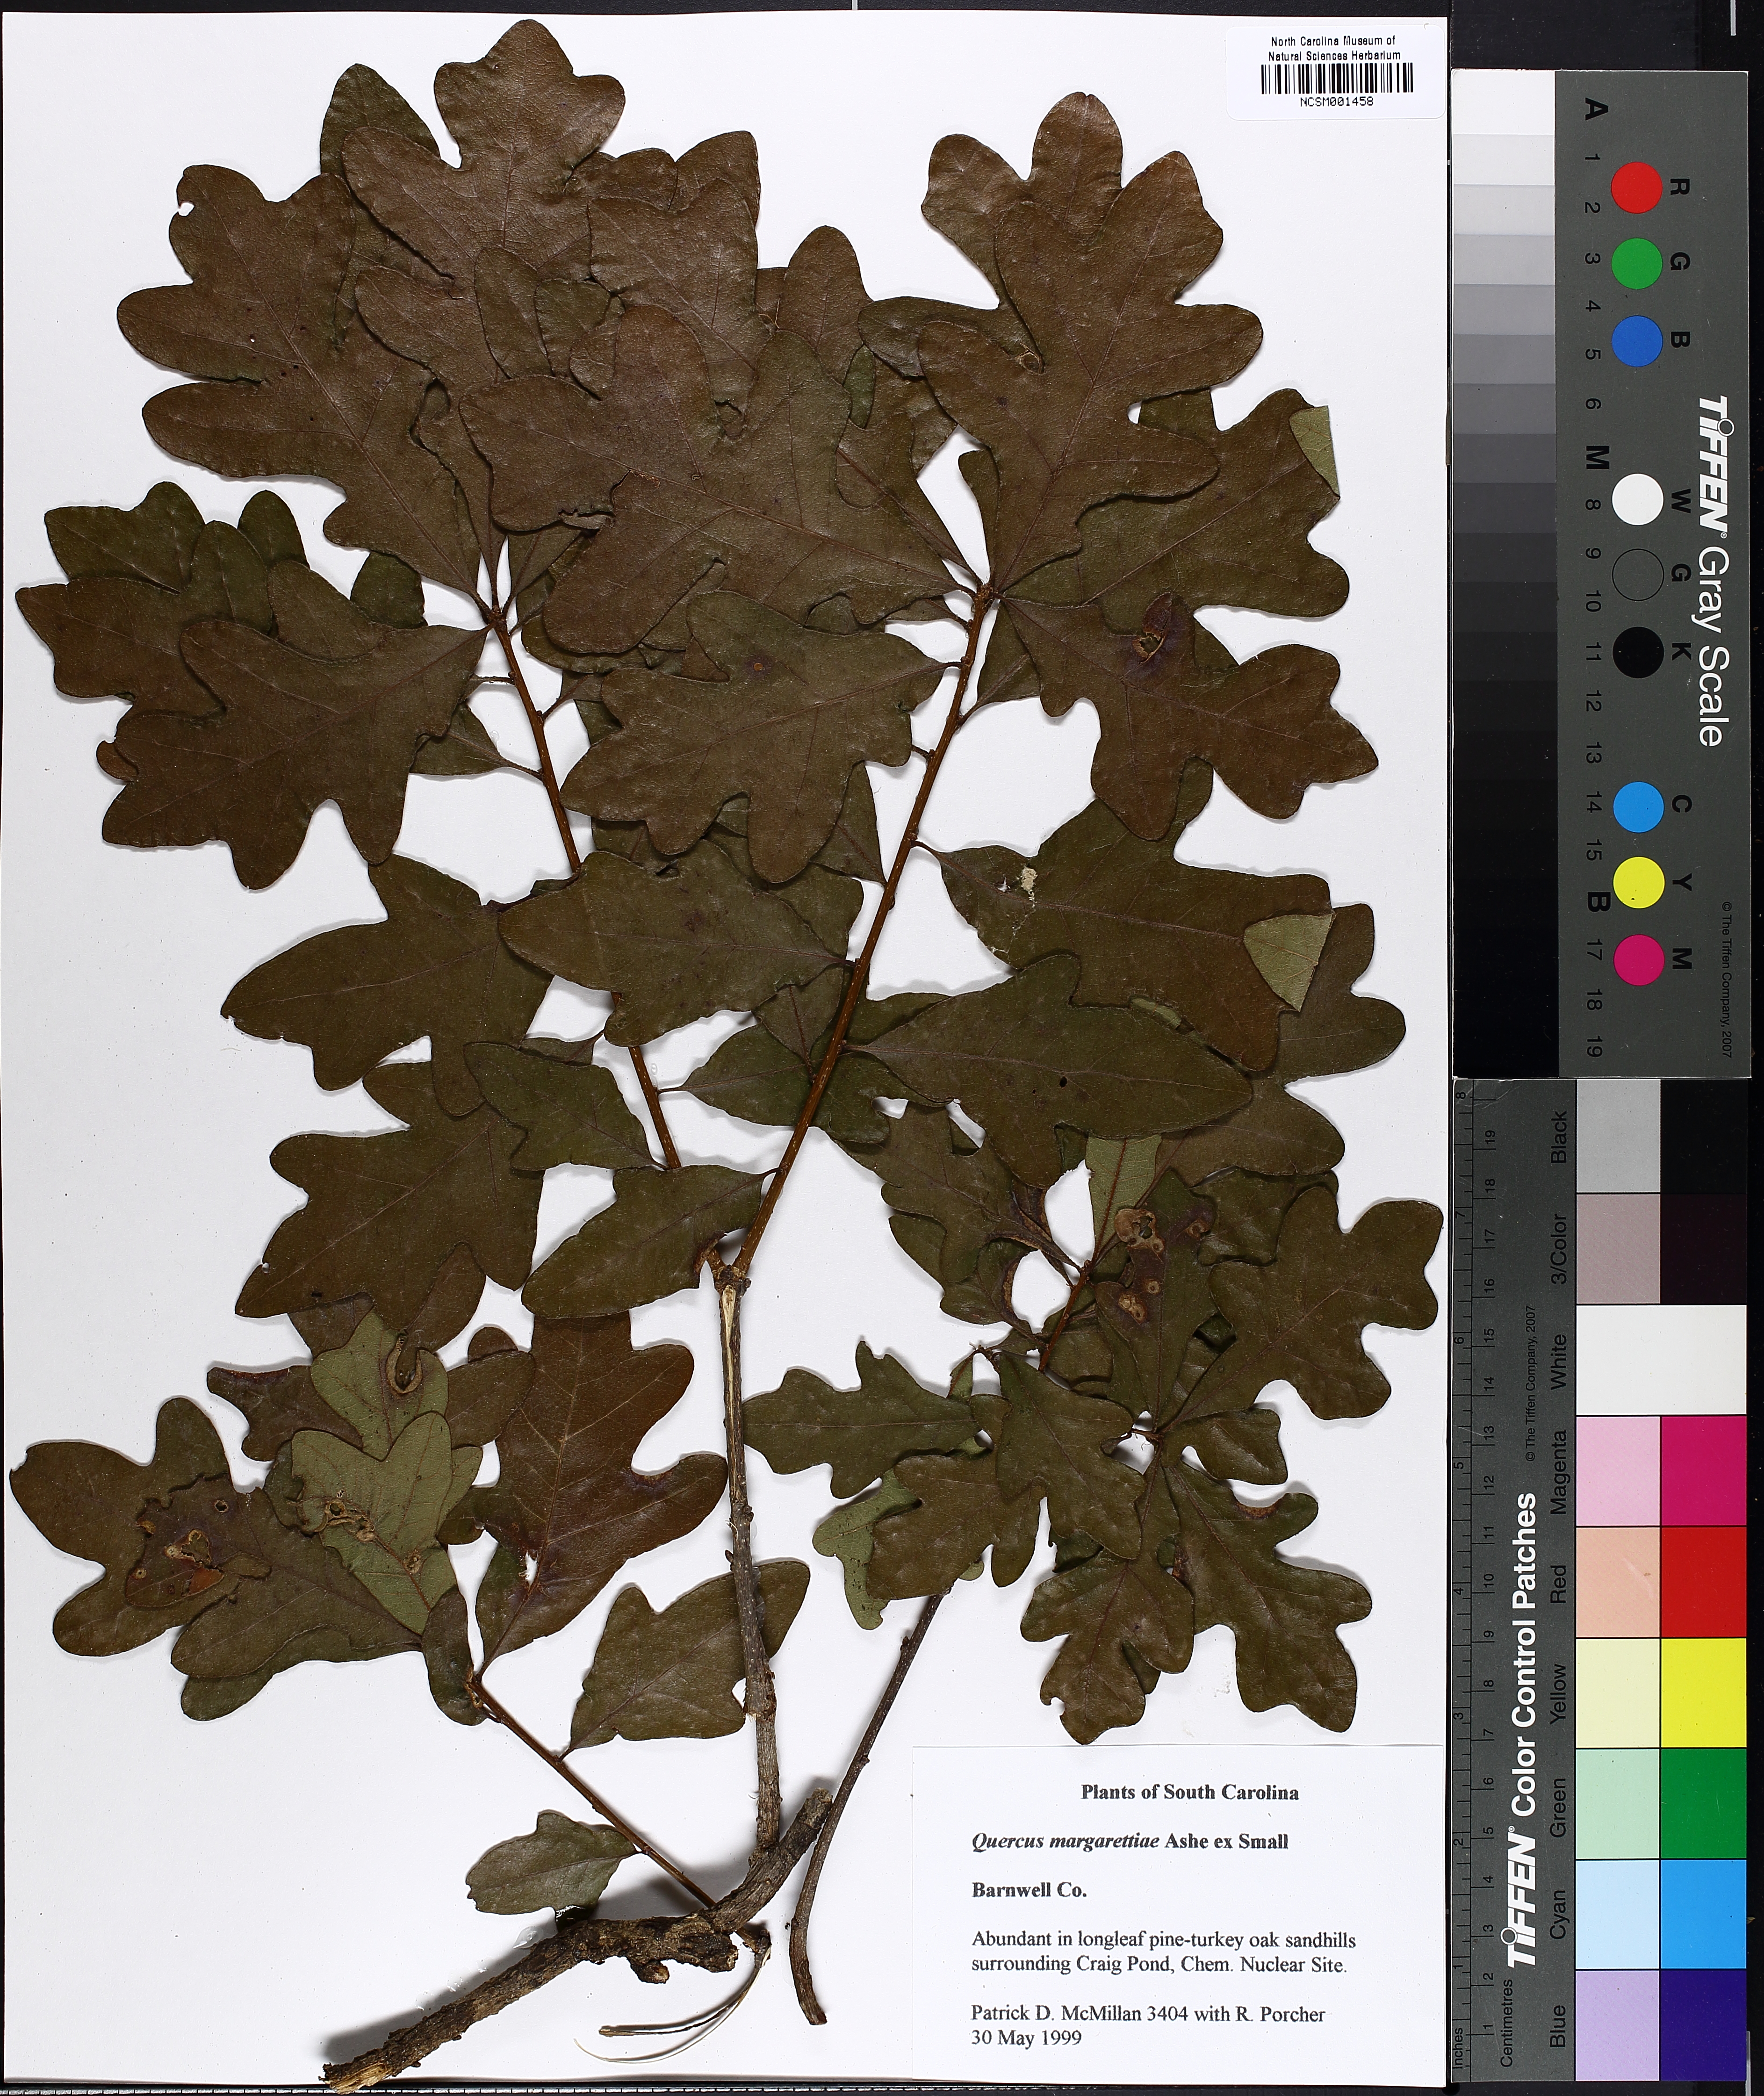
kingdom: Plantae
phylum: Tracheophyta
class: Magnoliopsida
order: Fagales
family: Fagaceae
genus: Quercus
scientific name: Quercus margaretiae
